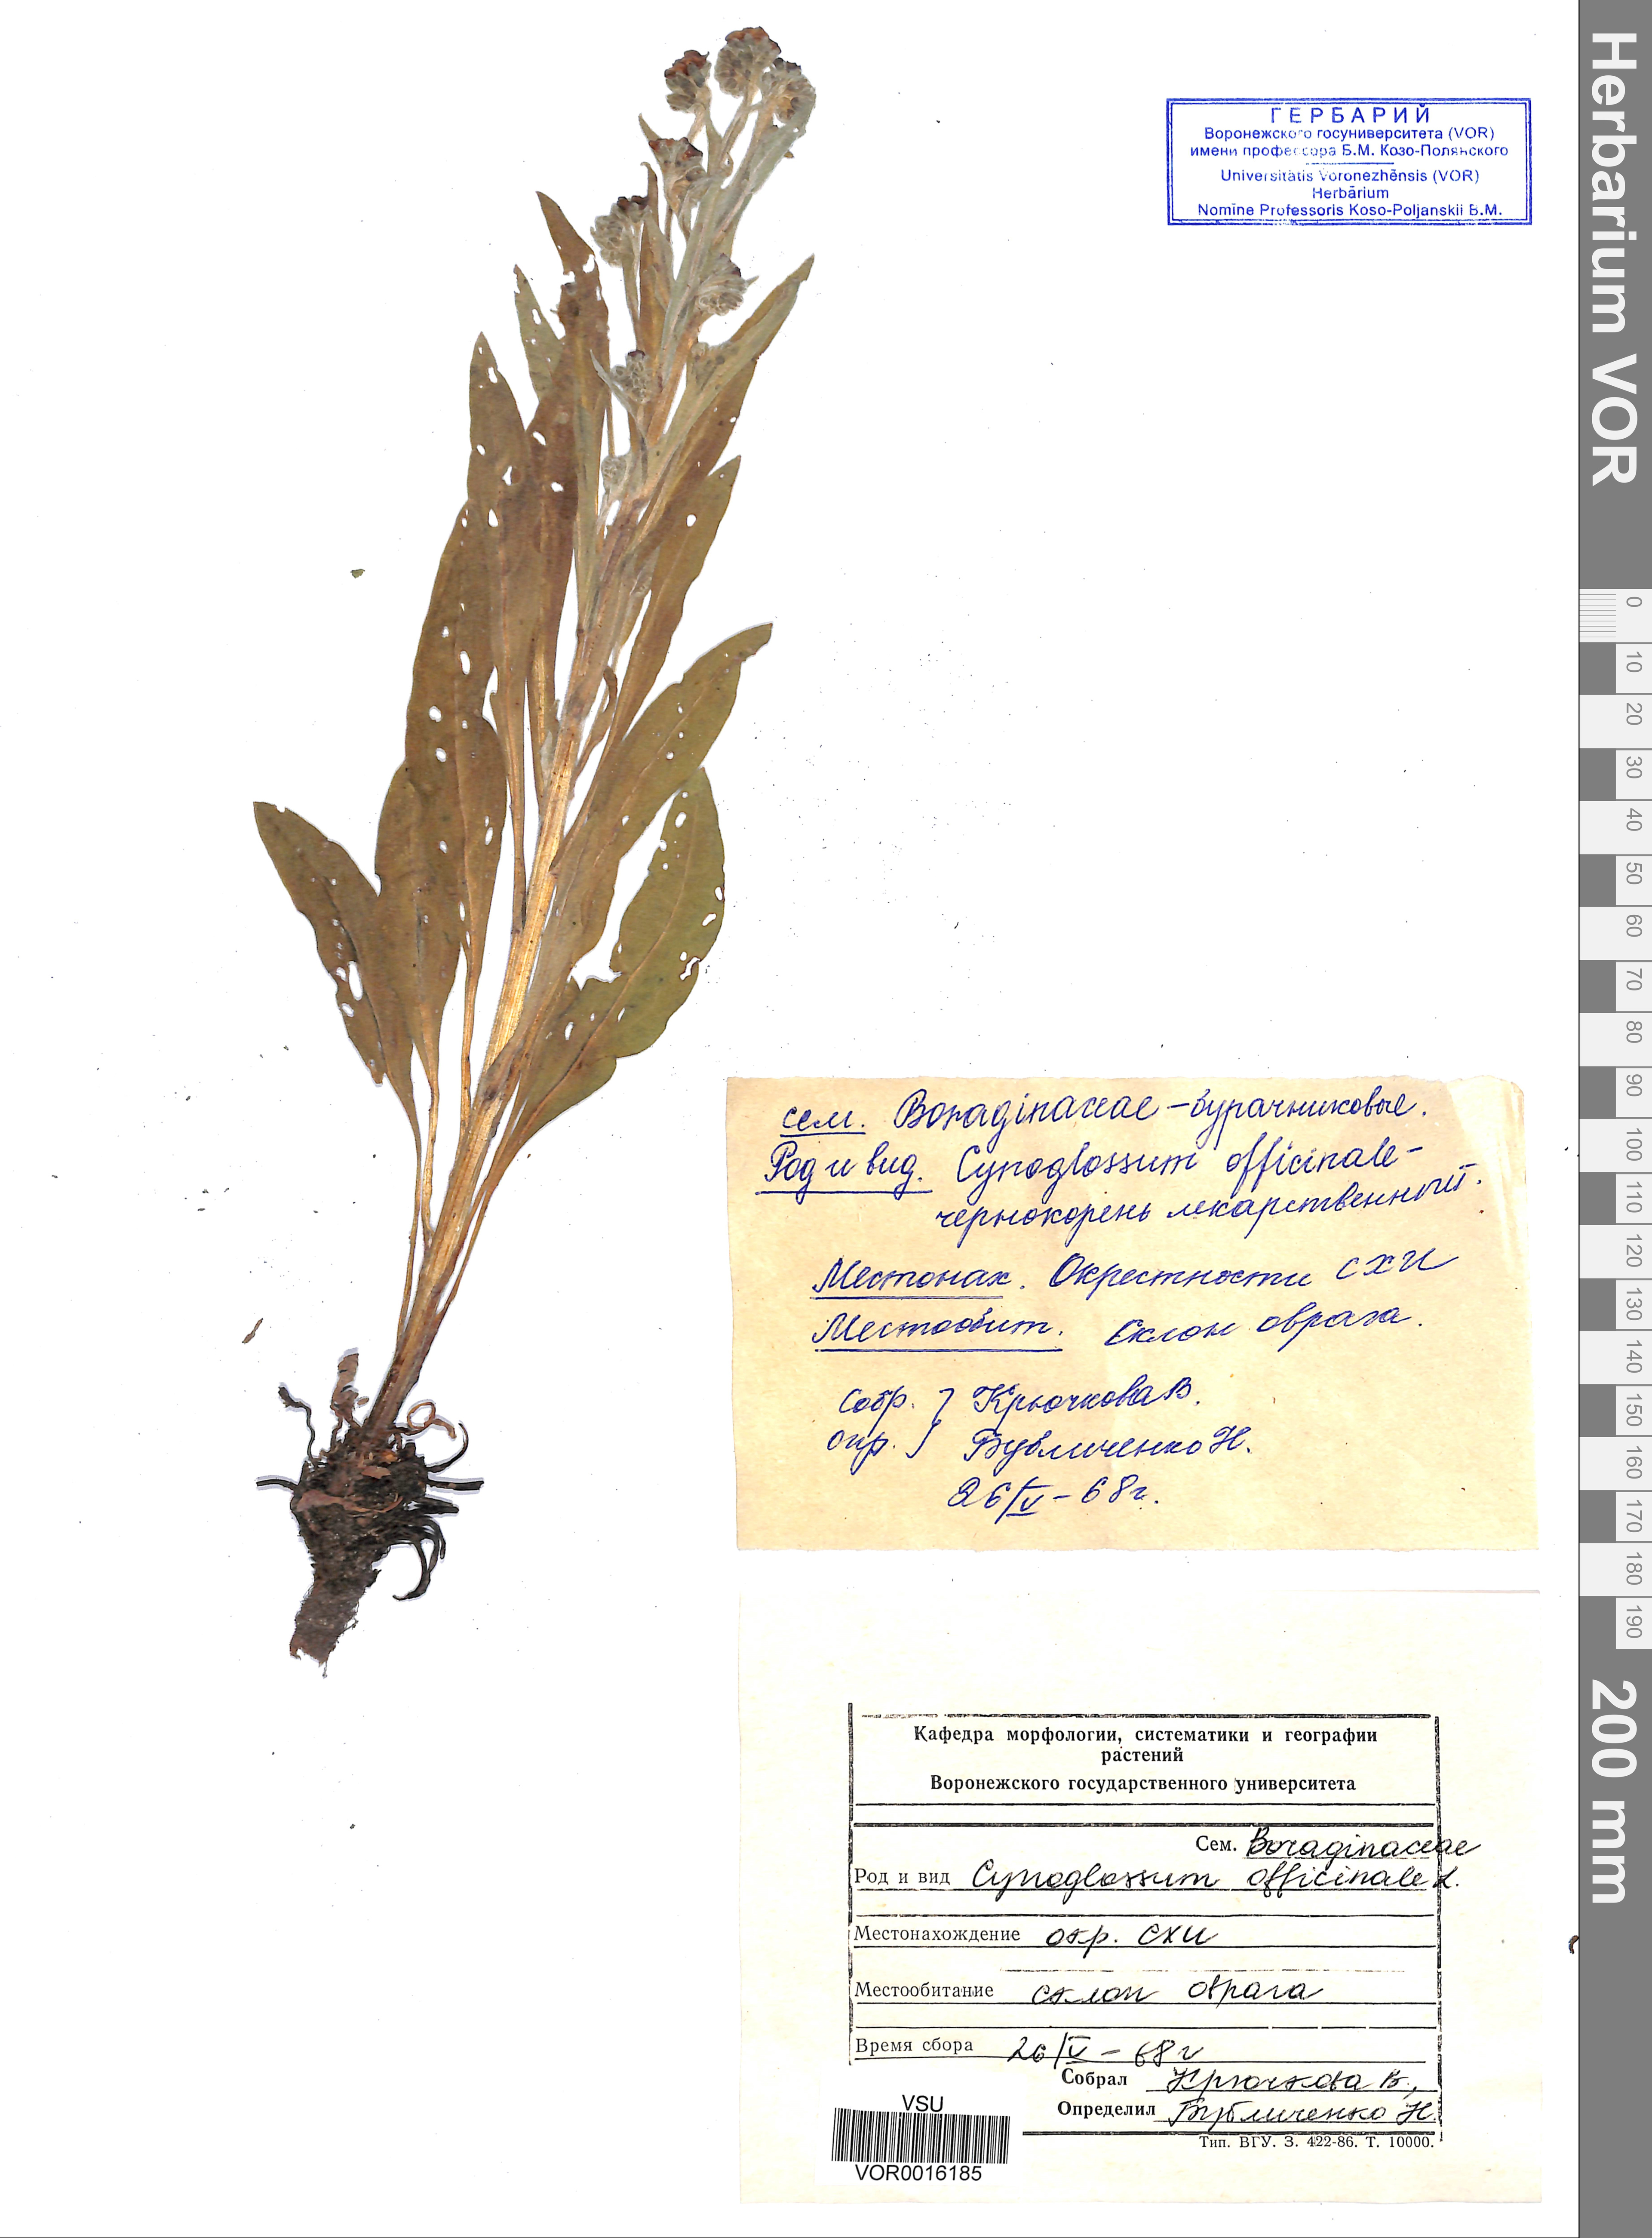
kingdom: Plantae
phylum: Tracheophyta
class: Magnoliopsida
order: Boraginales
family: Boraginaceae
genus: Cynoglossum
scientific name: Cynoglossum officinale
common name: Hound's-tongue
